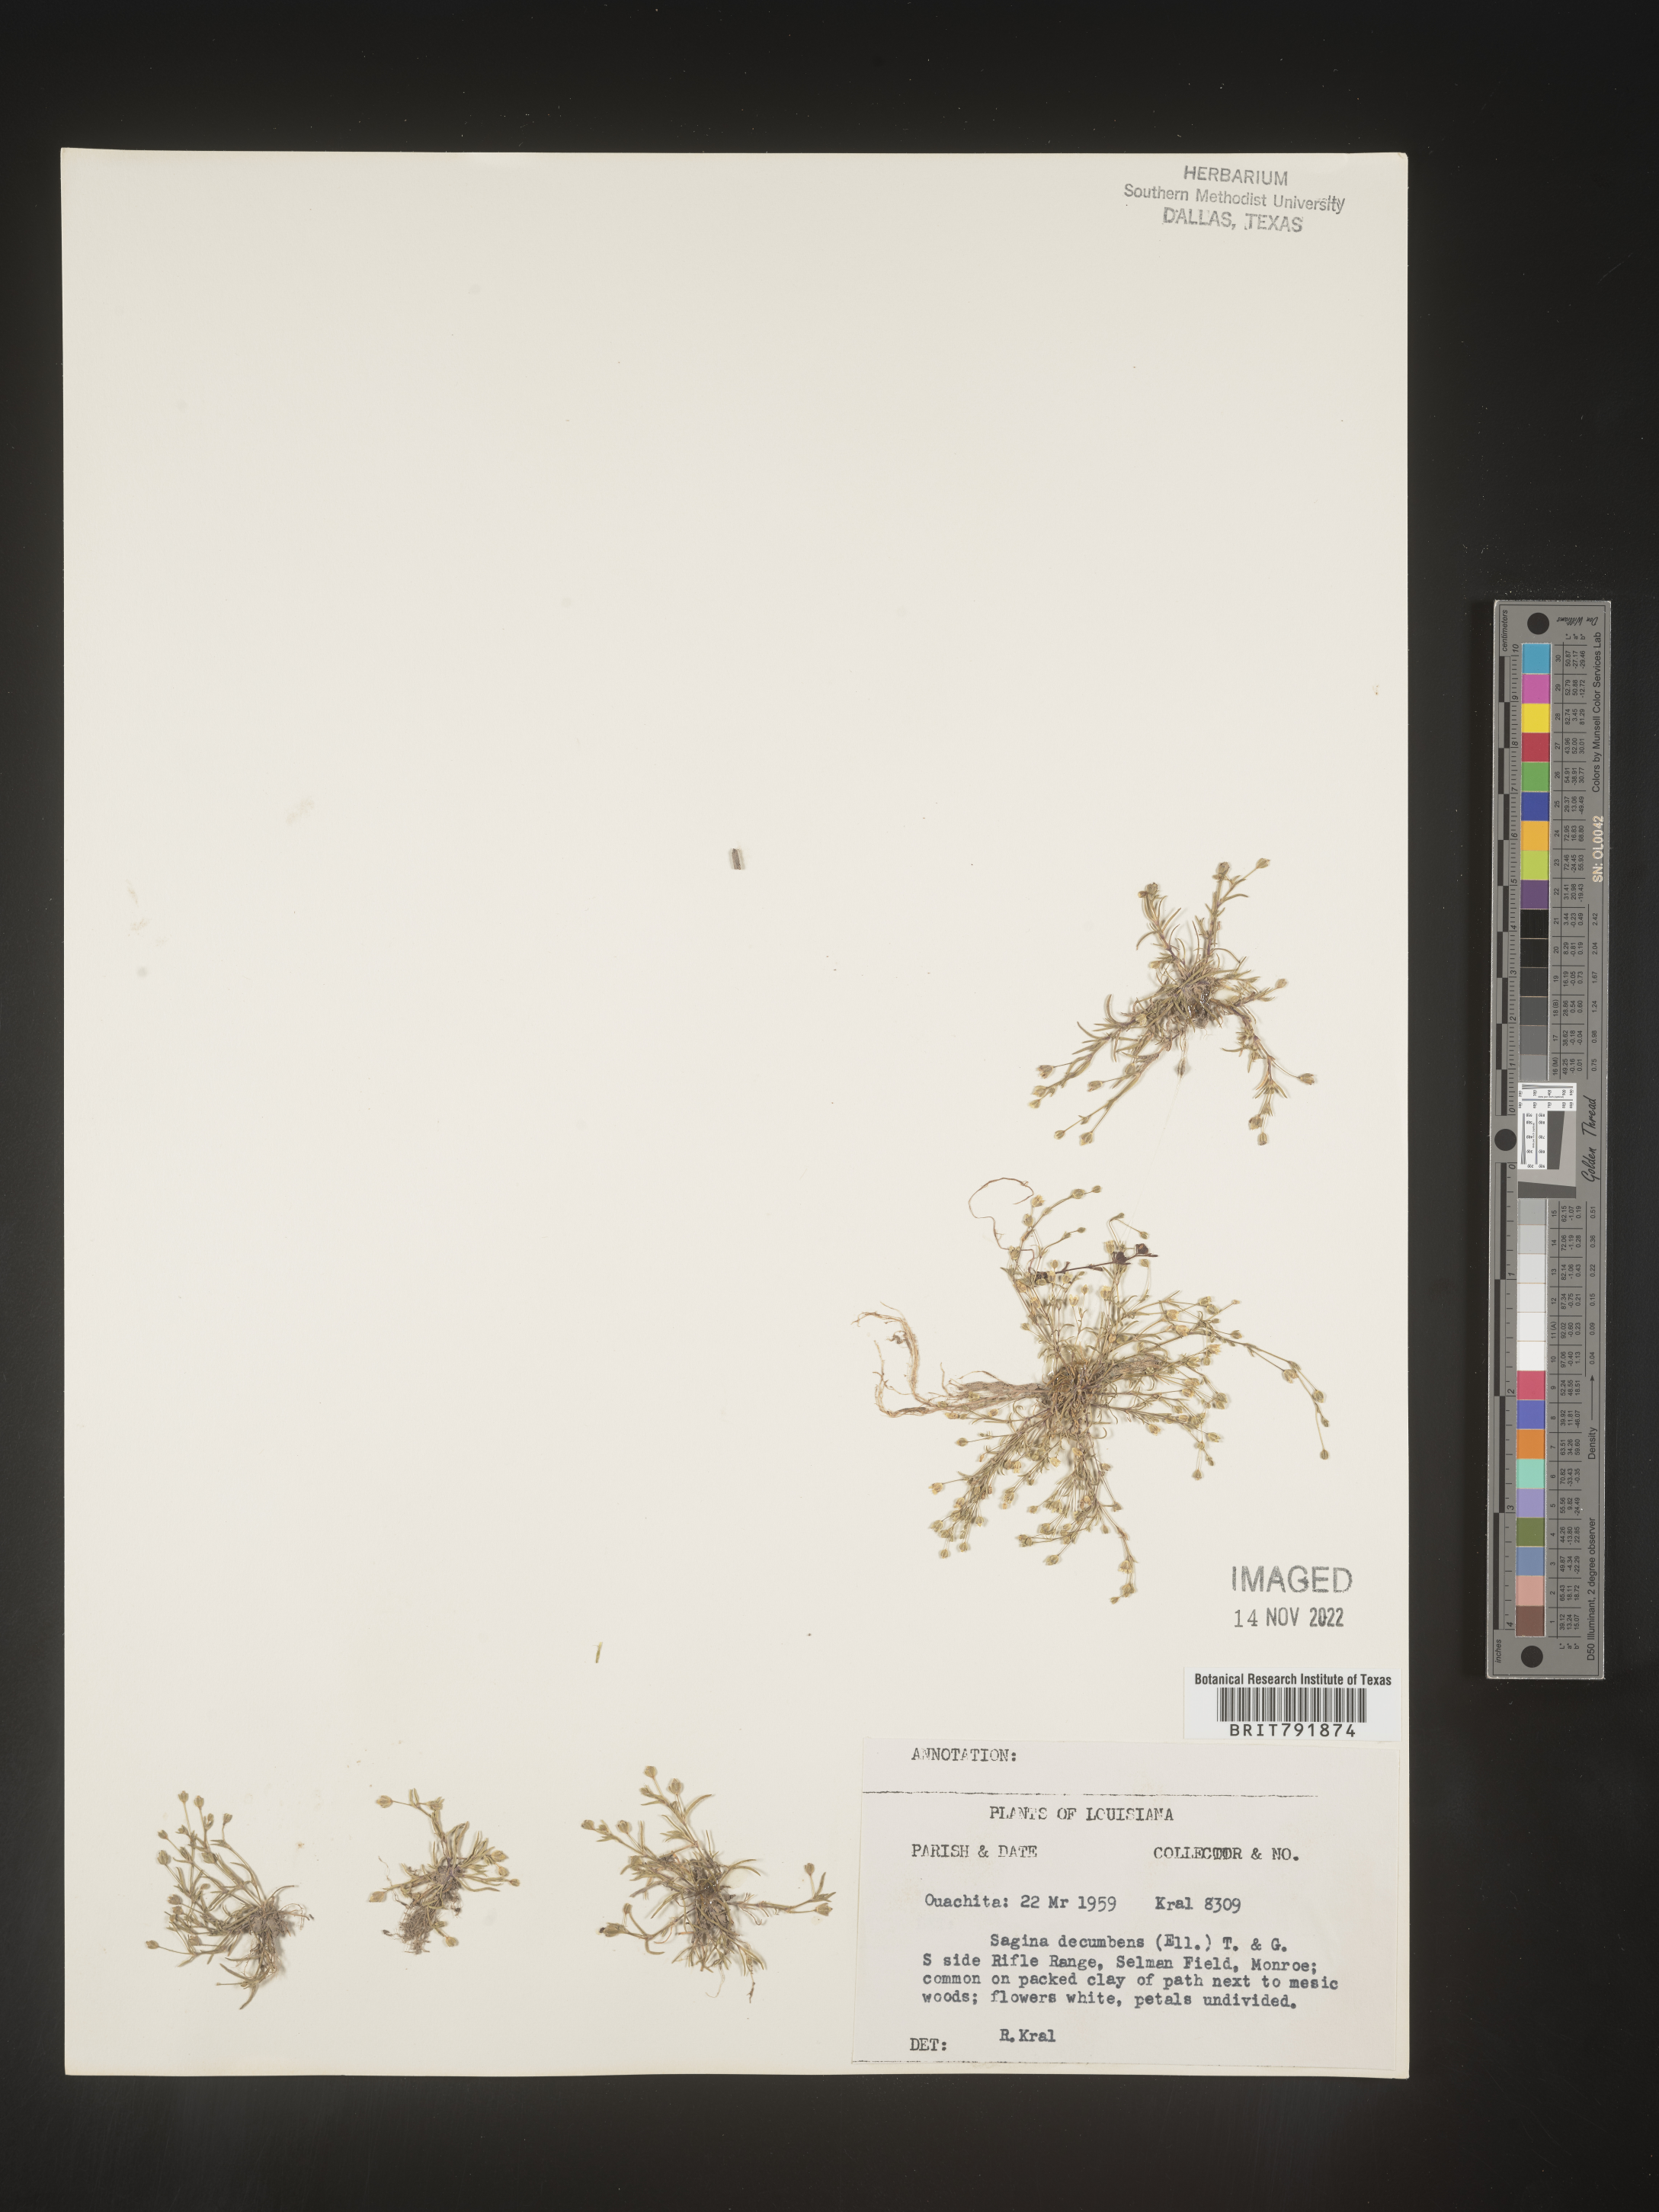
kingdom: Plantae
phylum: Tracheophyta
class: Magnoliopsida
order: Caryophyllales
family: Caryophyllaceae
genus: Sagina
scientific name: Sagina decumbens
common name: Decumbent pearlwort
